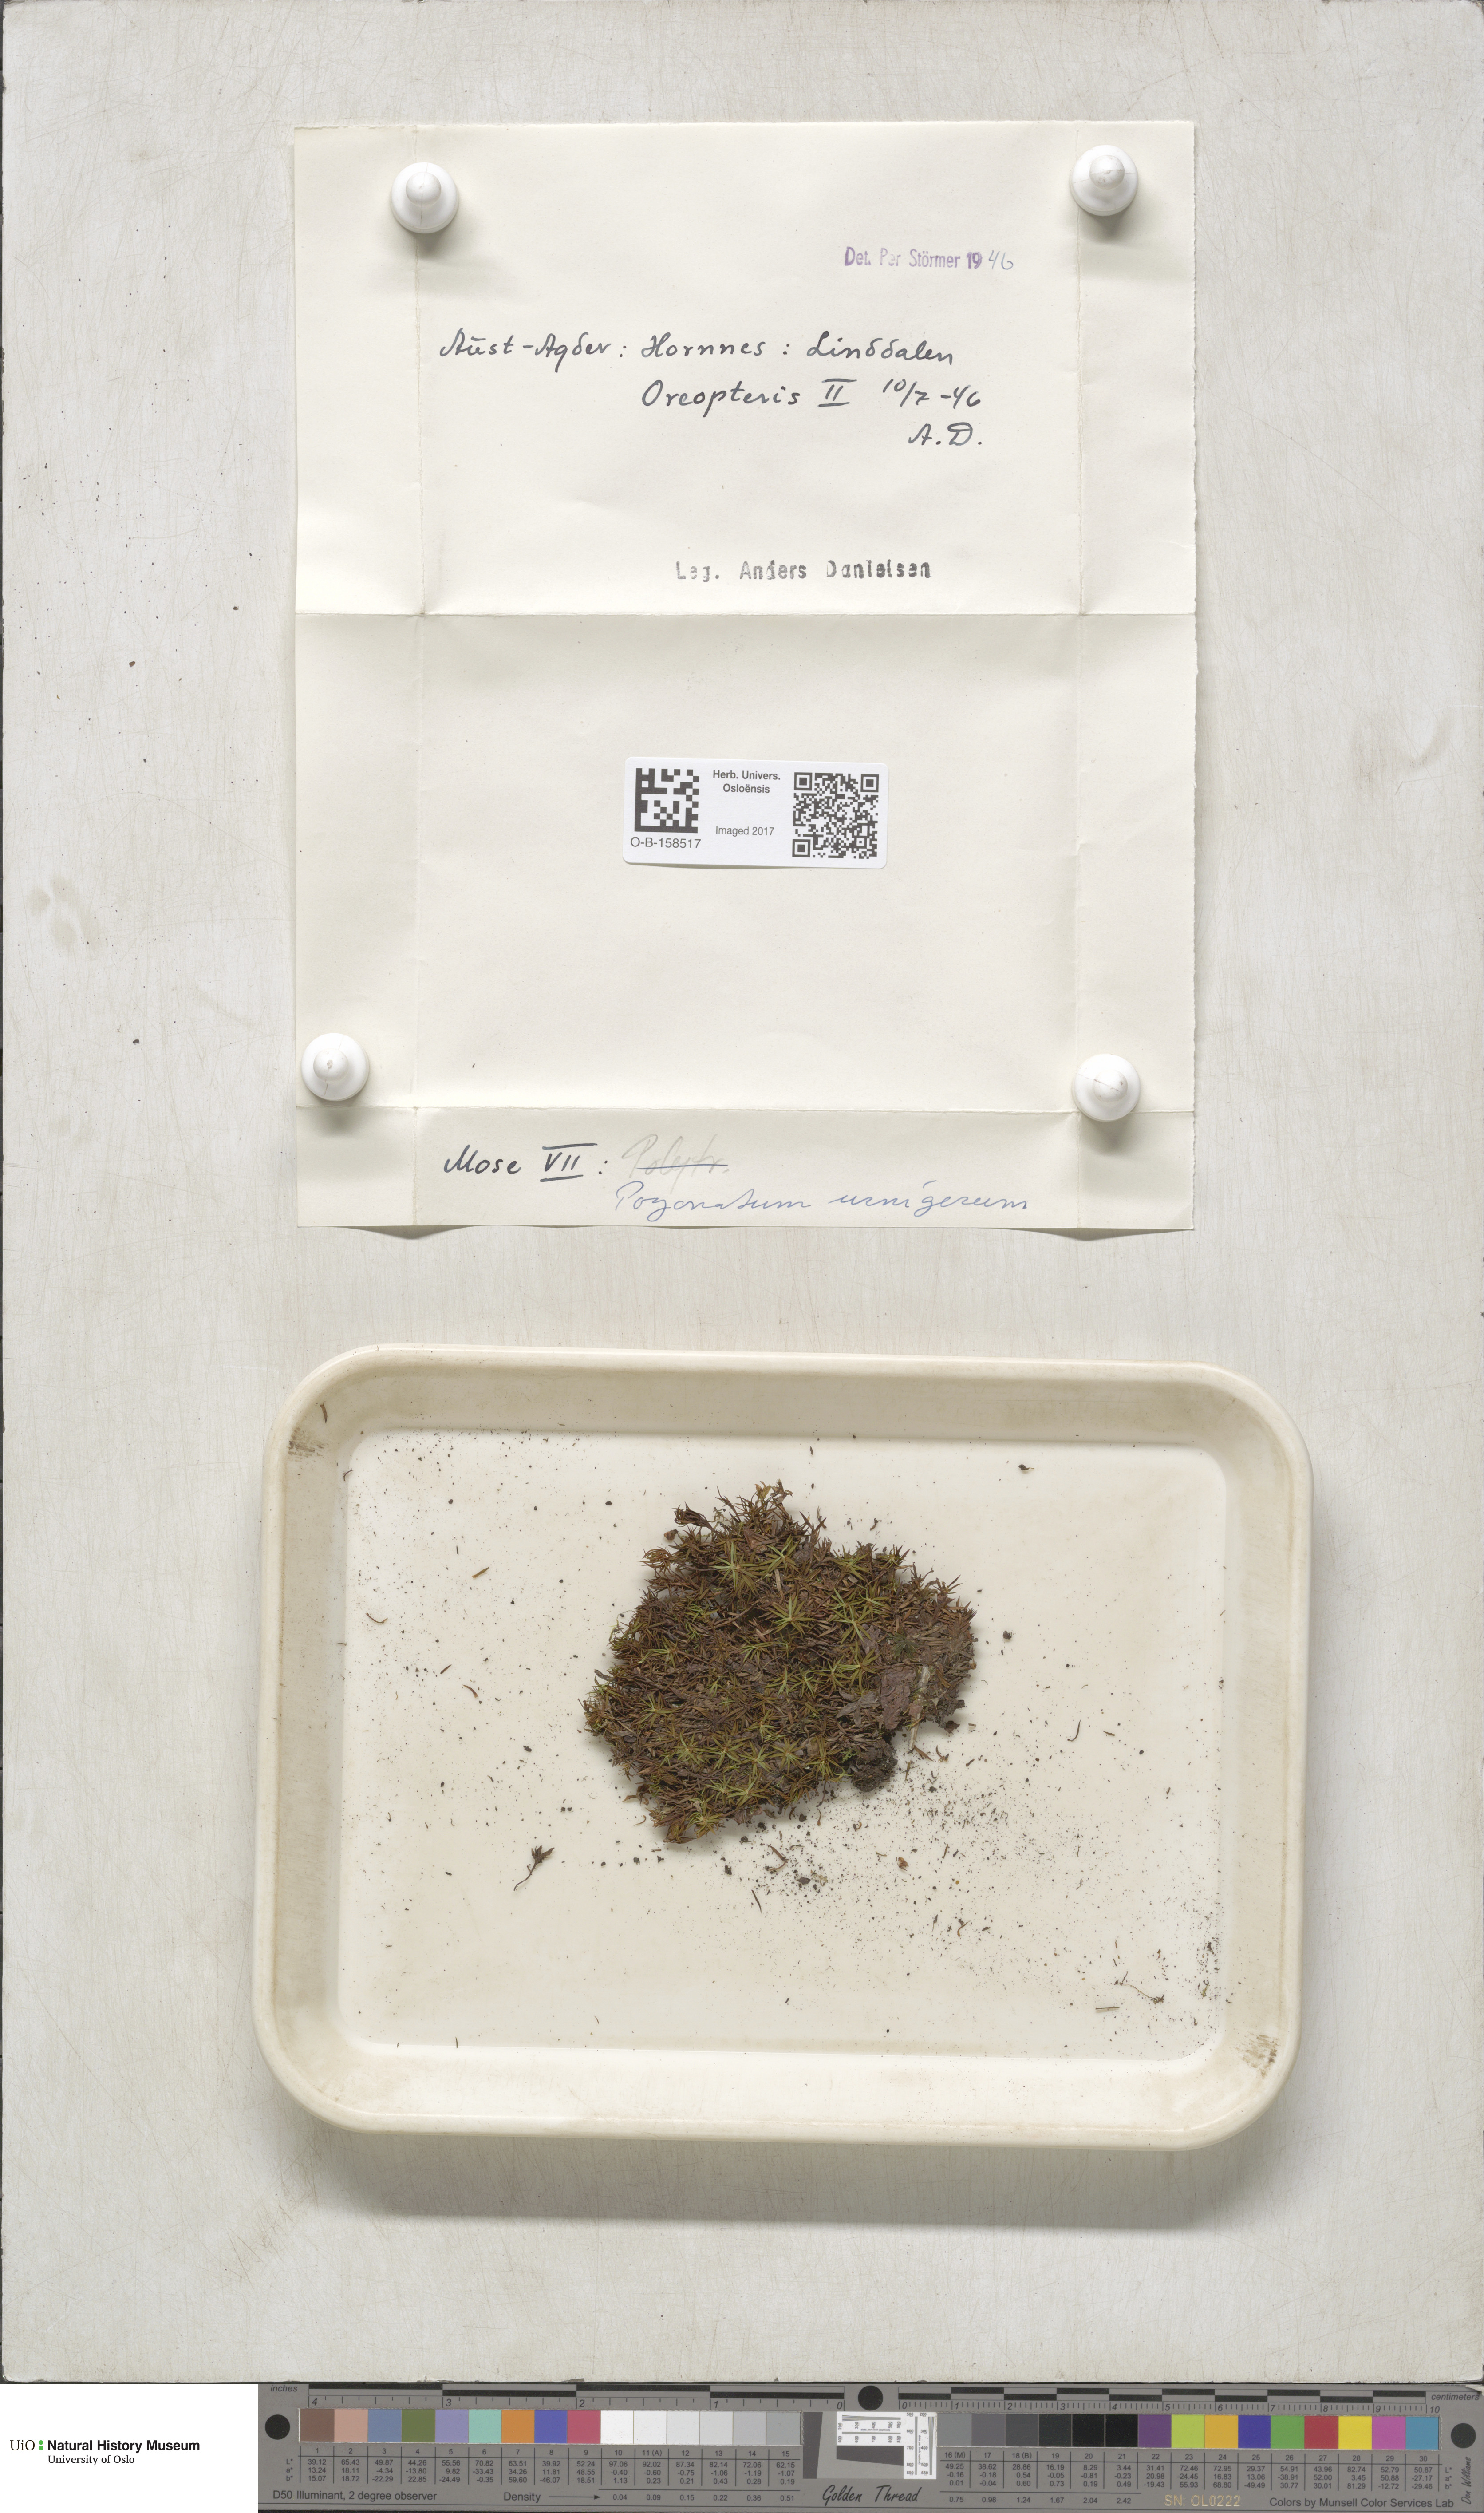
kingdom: Plantae
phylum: Bryophyta
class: Polytrichopsida
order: Polytrichales
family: Polytrichaceae
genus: Pogonatum
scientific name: Pogonatum urnigerum
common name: Urn hair moss
